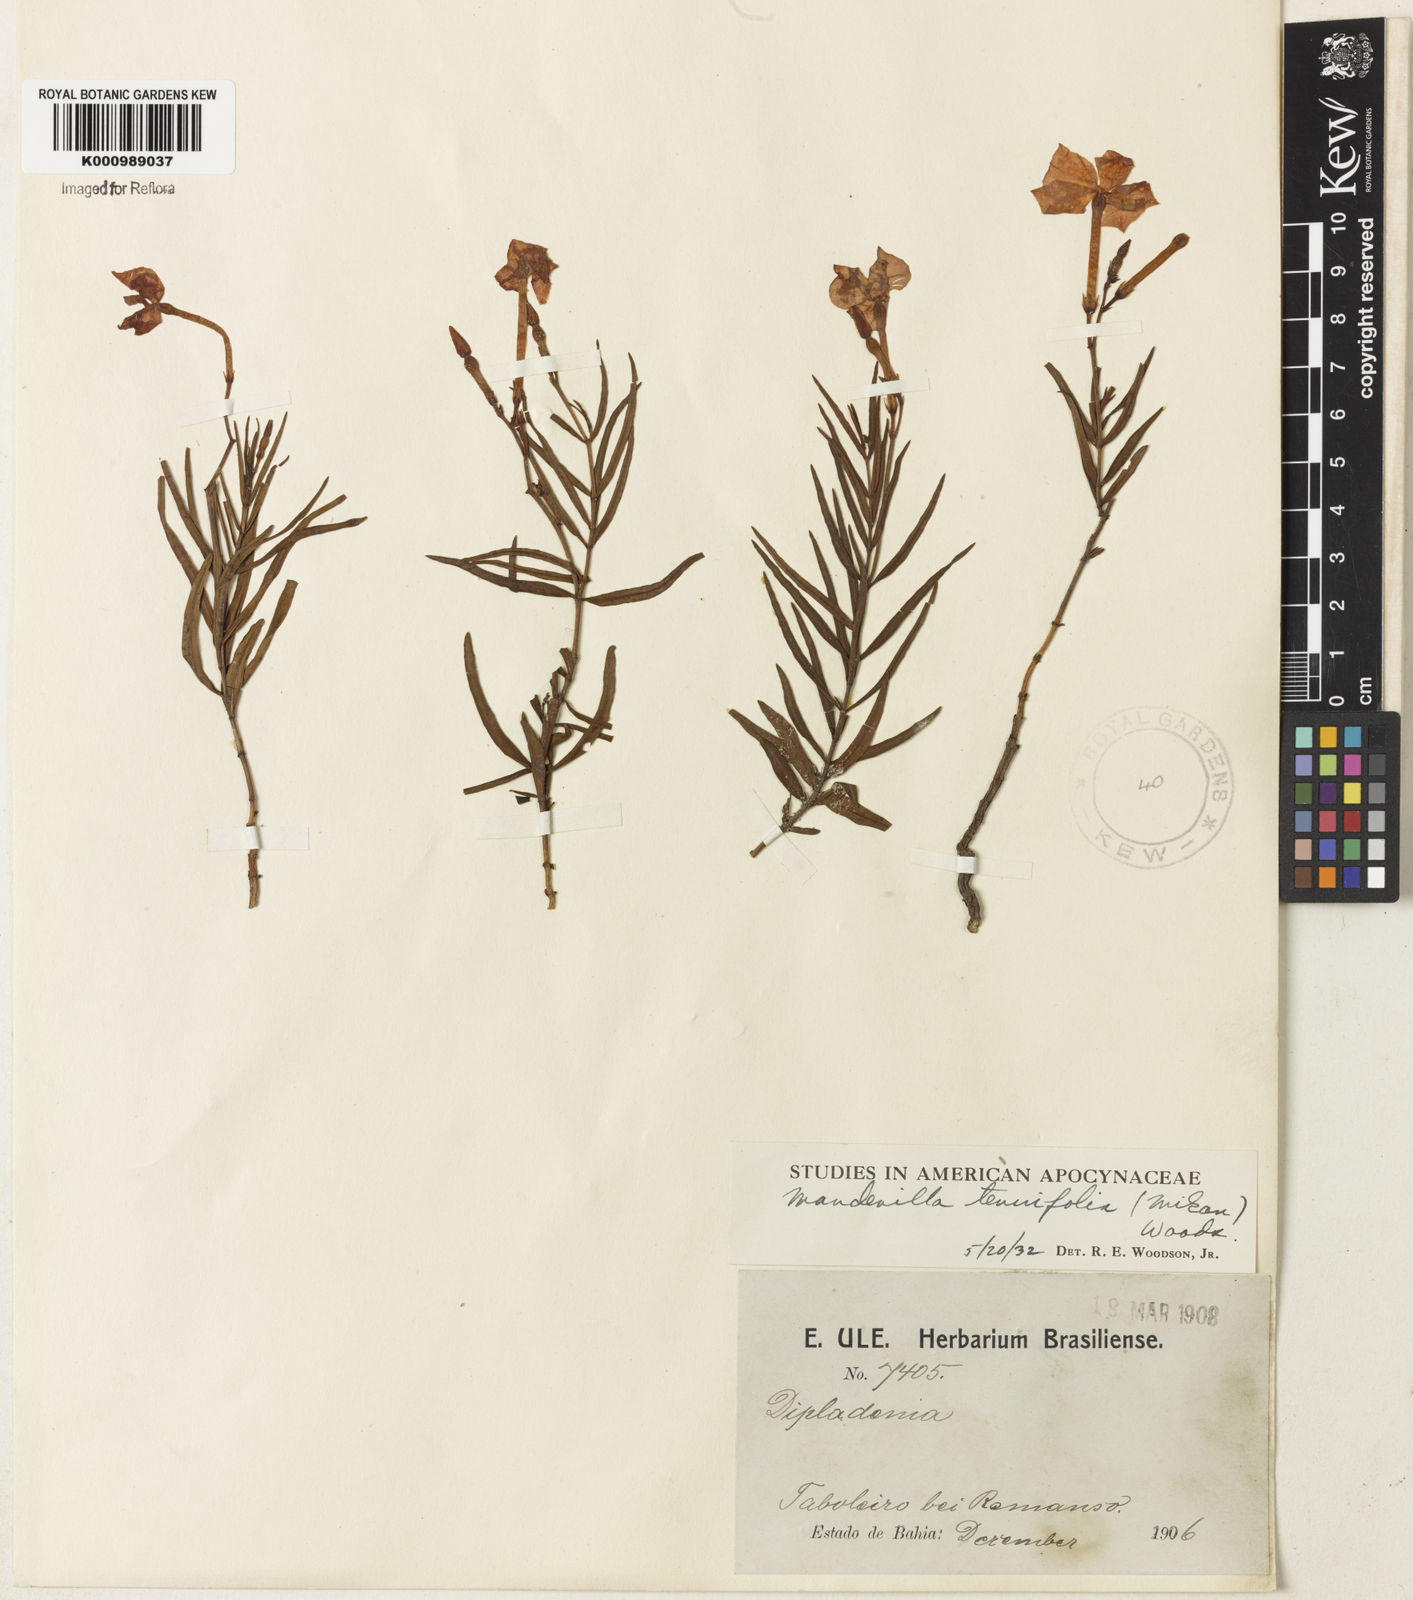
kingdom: Plantae
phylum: Tracheophyta
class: Magnoliopsida
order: Gentianales
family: Apocynaceae
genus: Mandevilla
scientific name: Mandevilla tenuifolia
